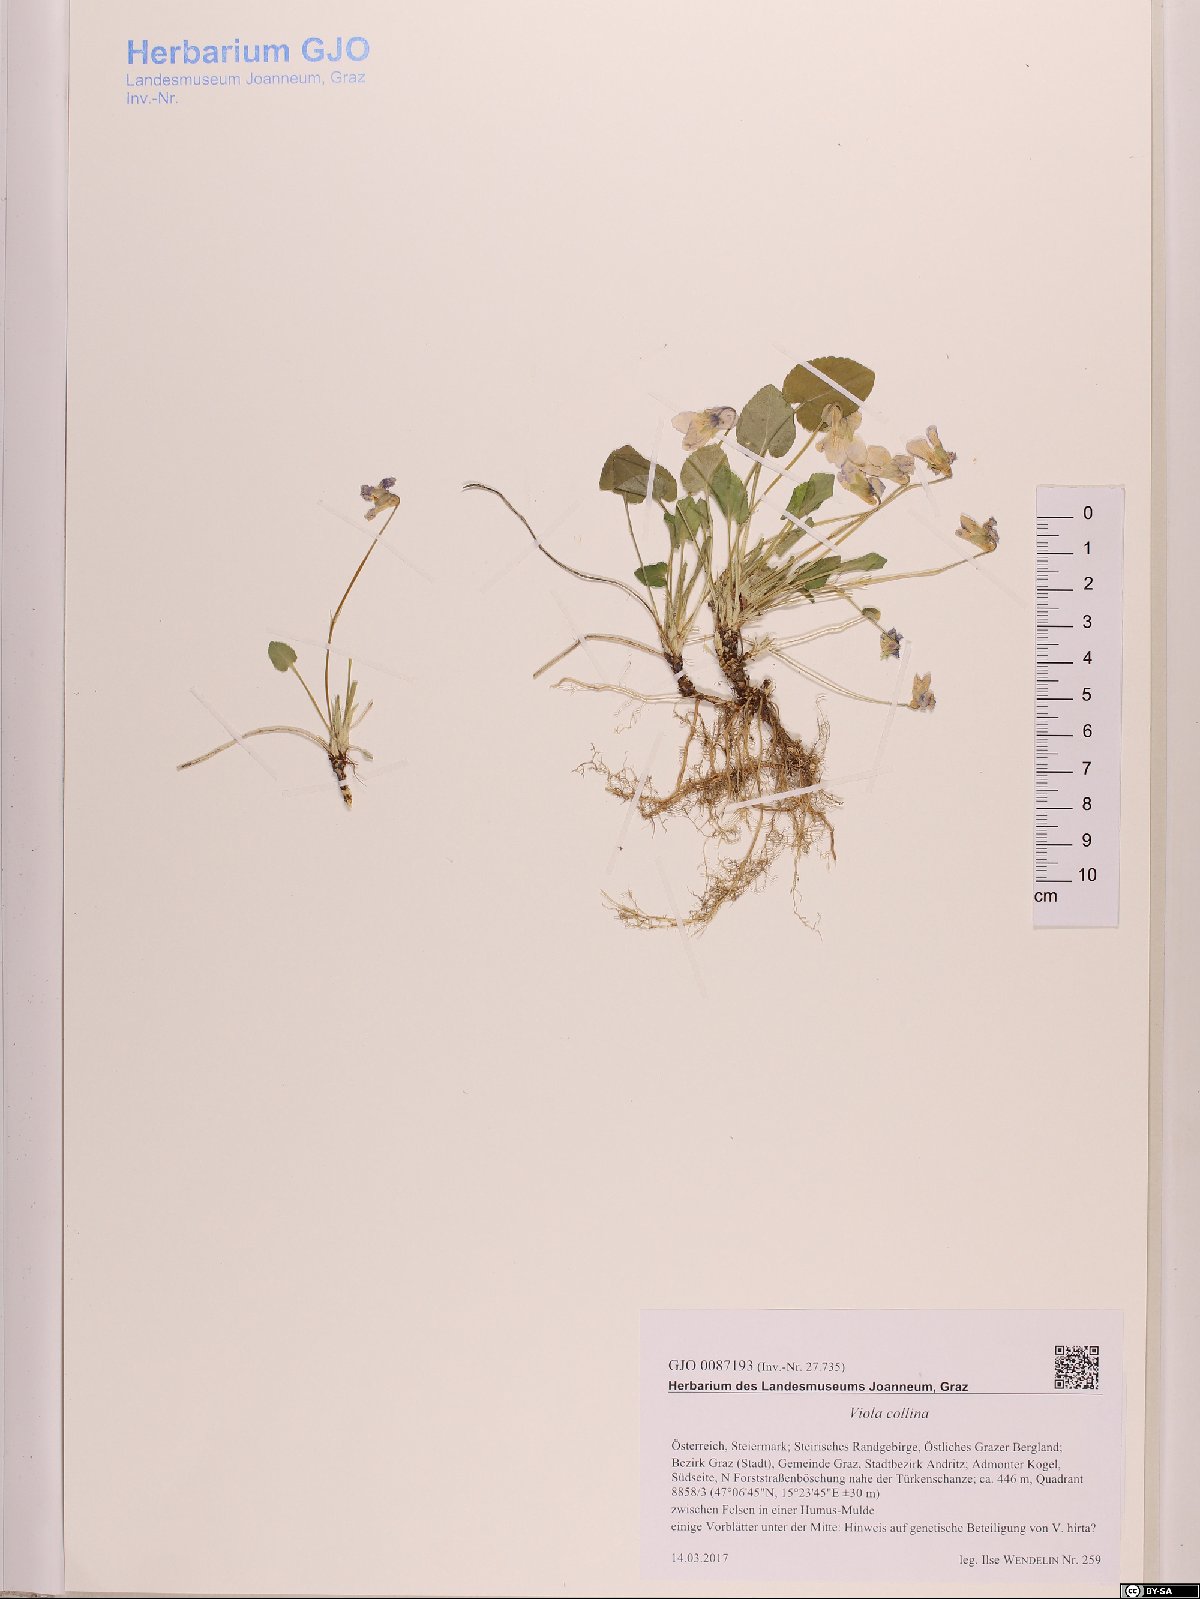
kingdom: Plantae
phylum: Tracheophyta
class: Magnoliopsida
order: Malpighiales
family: Violaceae
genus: Viola
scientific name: Viola collina
